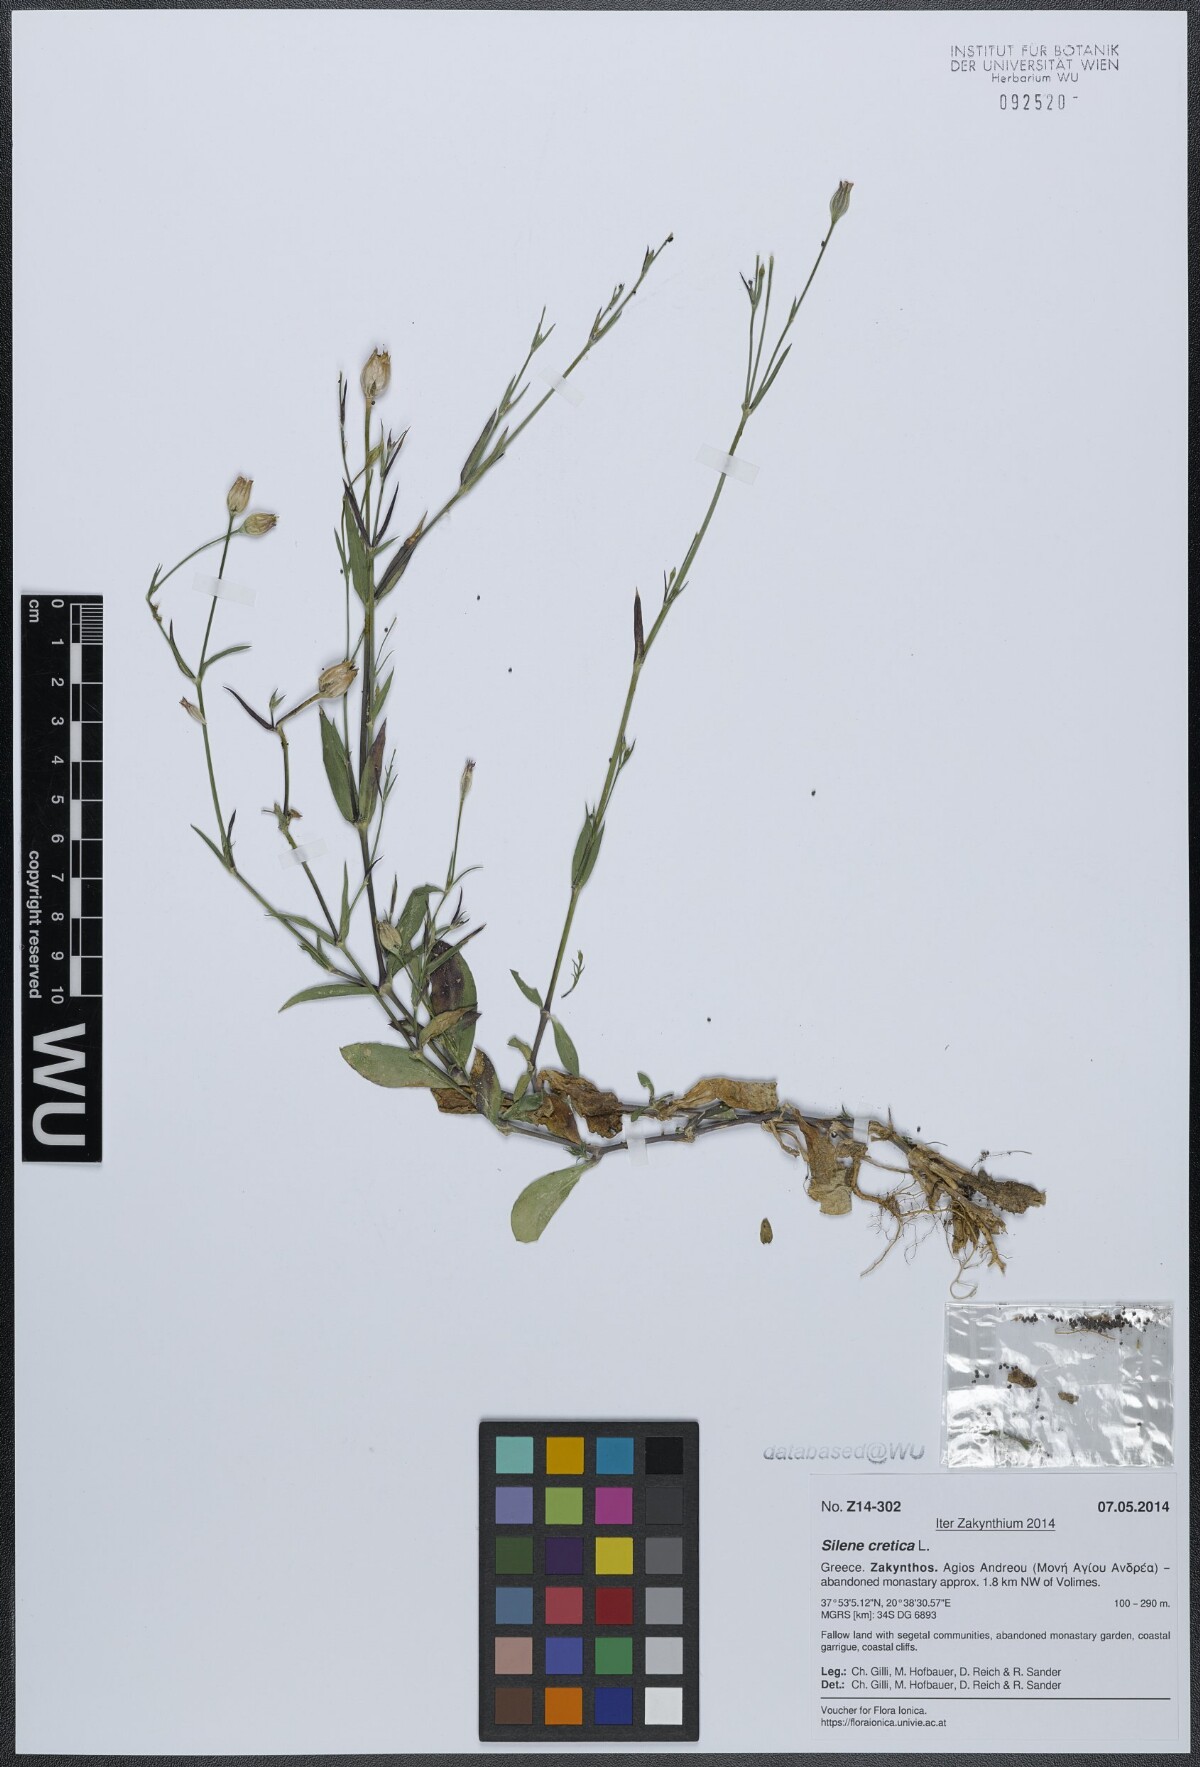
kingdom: Plantae
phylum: Tracheophyta
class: Magnoliopsida
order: Caryophyllales
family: Caryophyllaceae
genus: Silene
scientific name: Silene cretica
